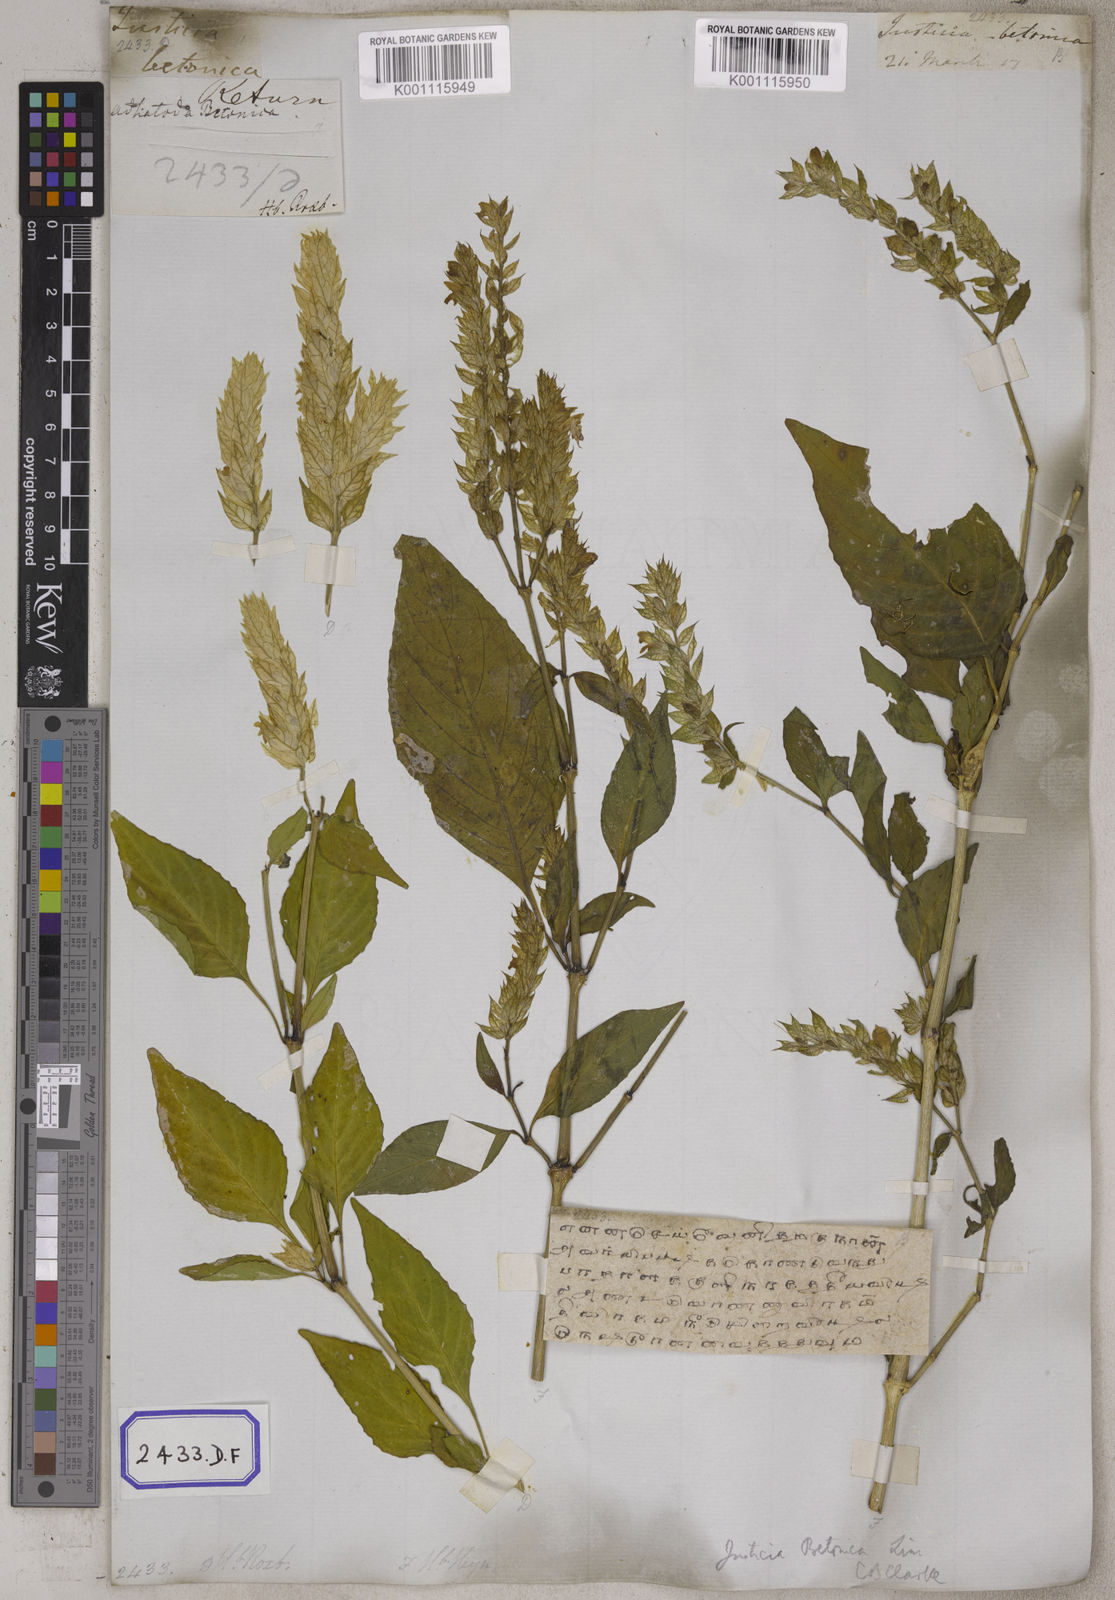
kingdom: Plantae
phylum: Tracheophyta
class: Magnoliopsida
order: Lamiales
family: Acanthaceae
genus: Nicoteba
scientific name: Nicoteba betonica
